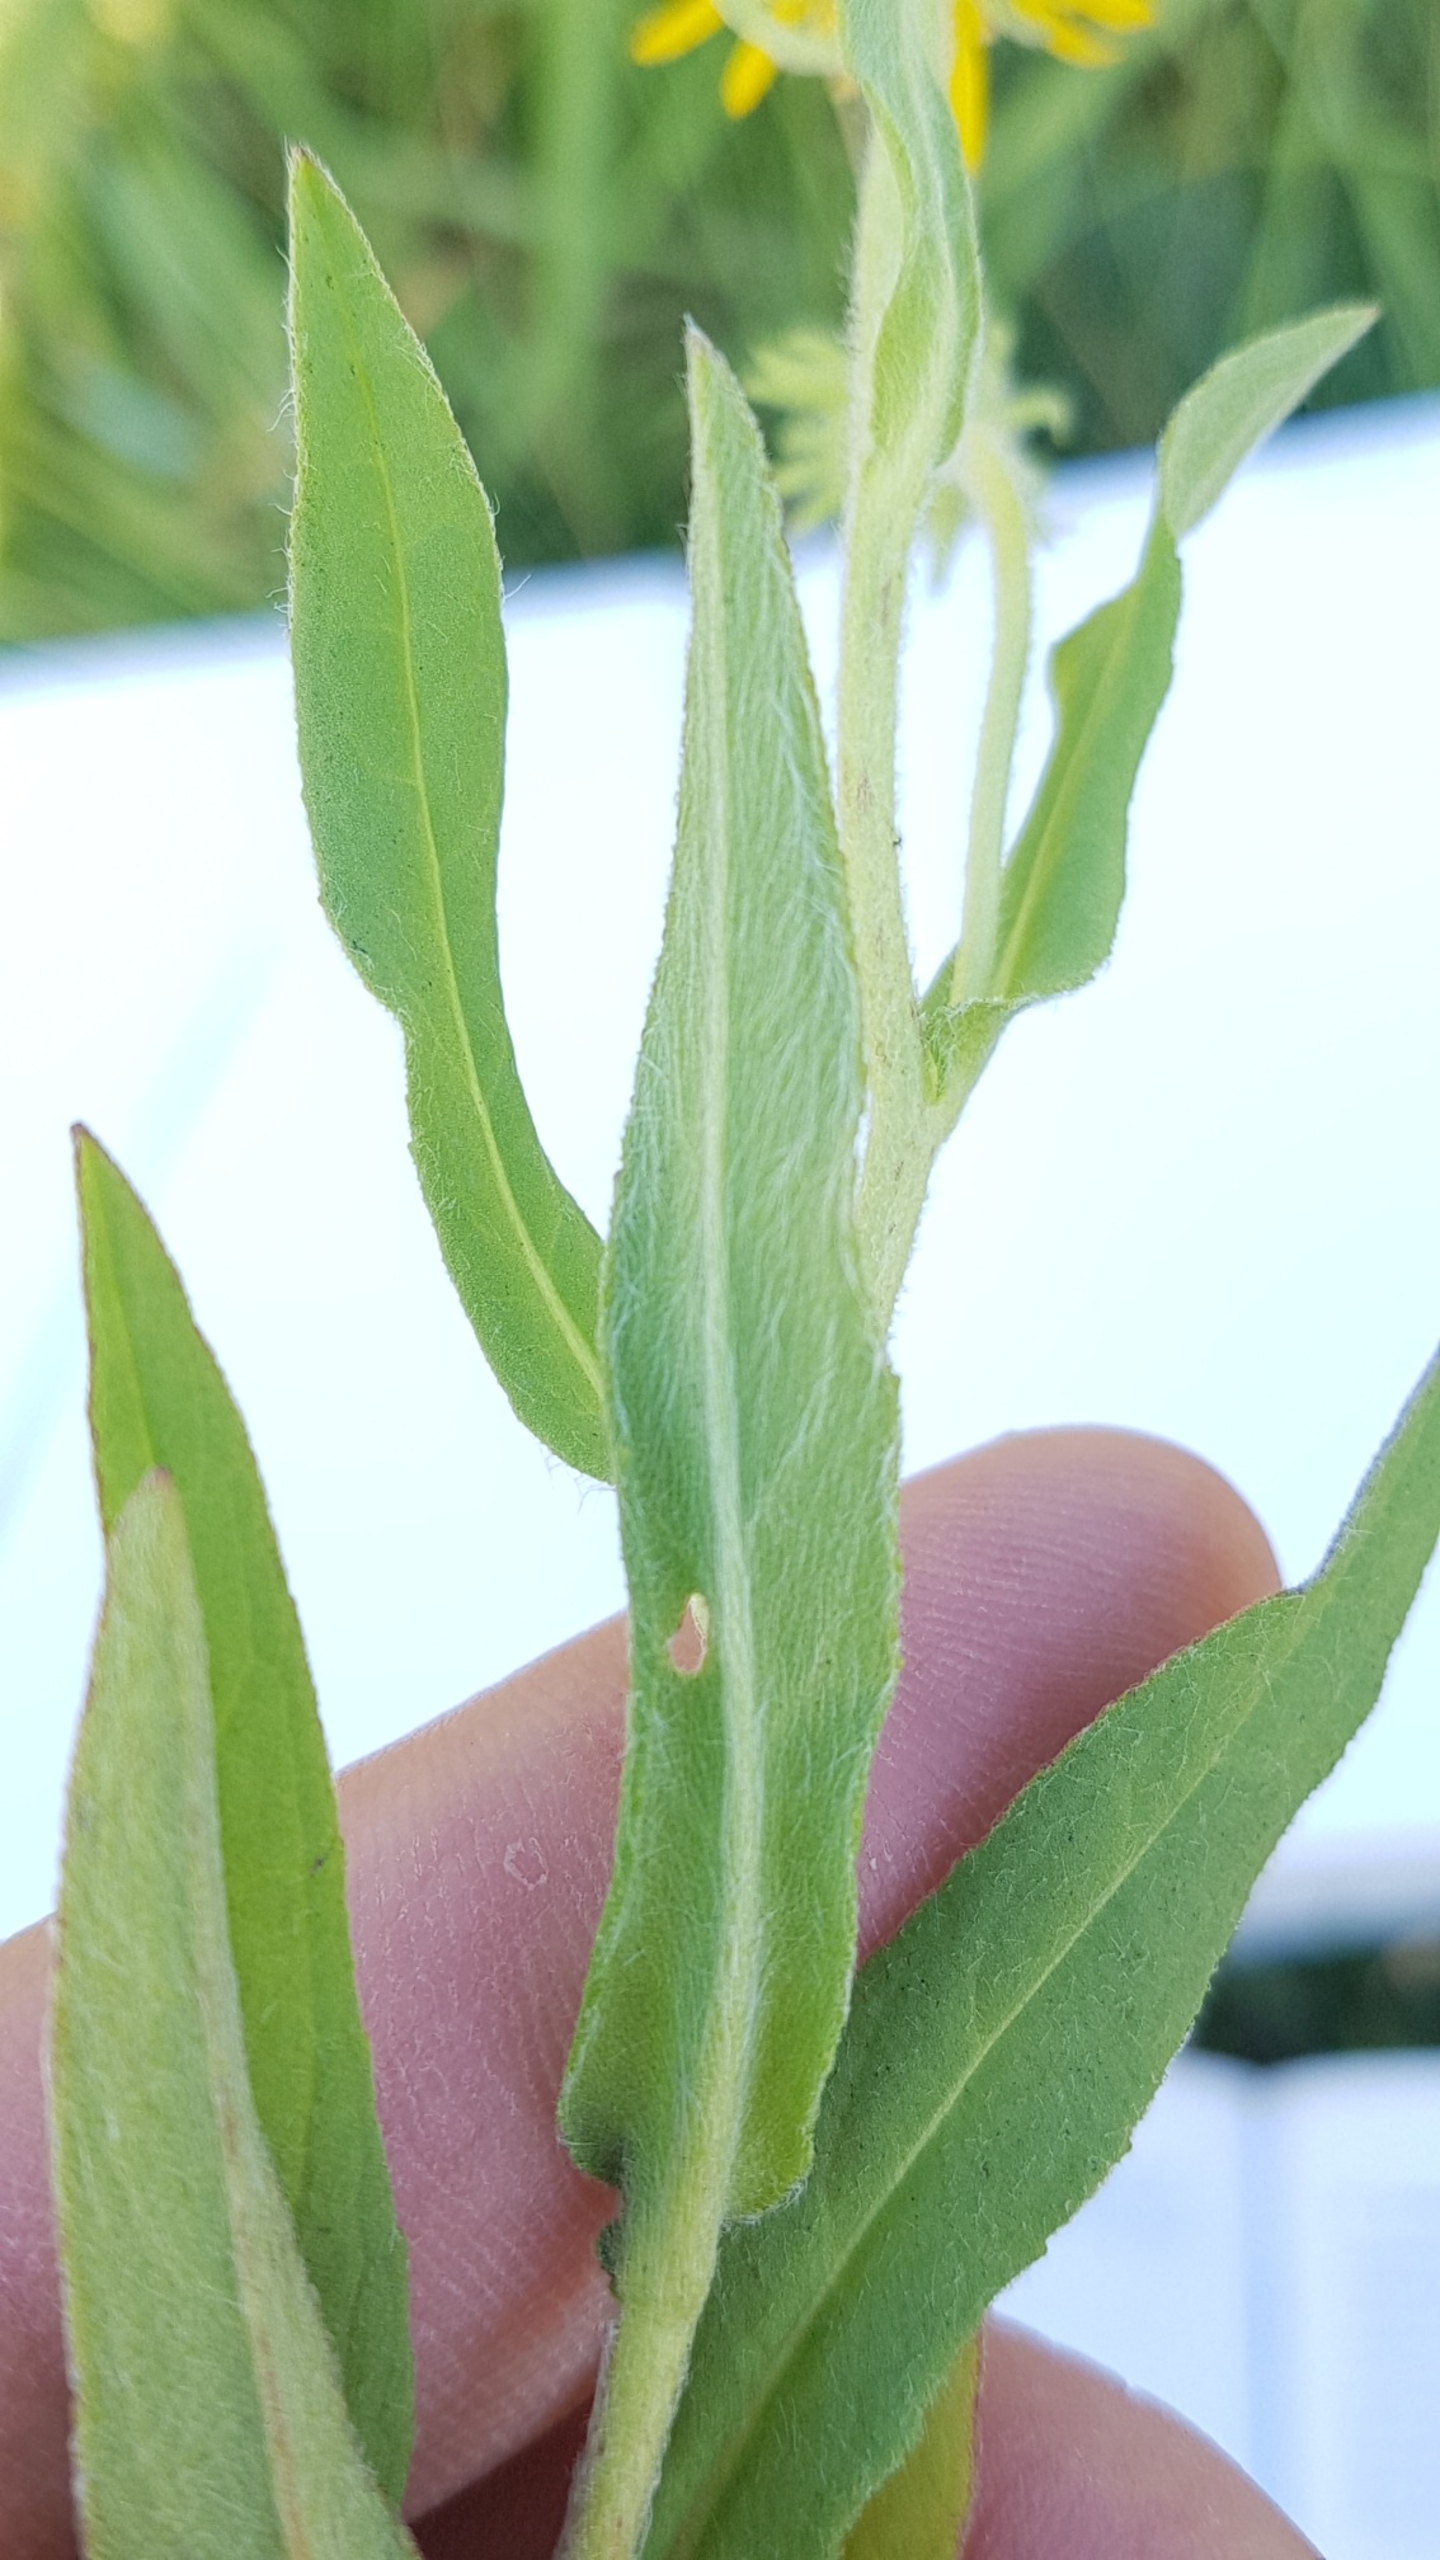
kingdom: Plantae
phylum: Tracheophyta
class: Magnoliopsida
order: Asterales
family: Asteraceae
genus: Pentanema
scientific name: Pentanema britannicum
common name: Soløje-alant
